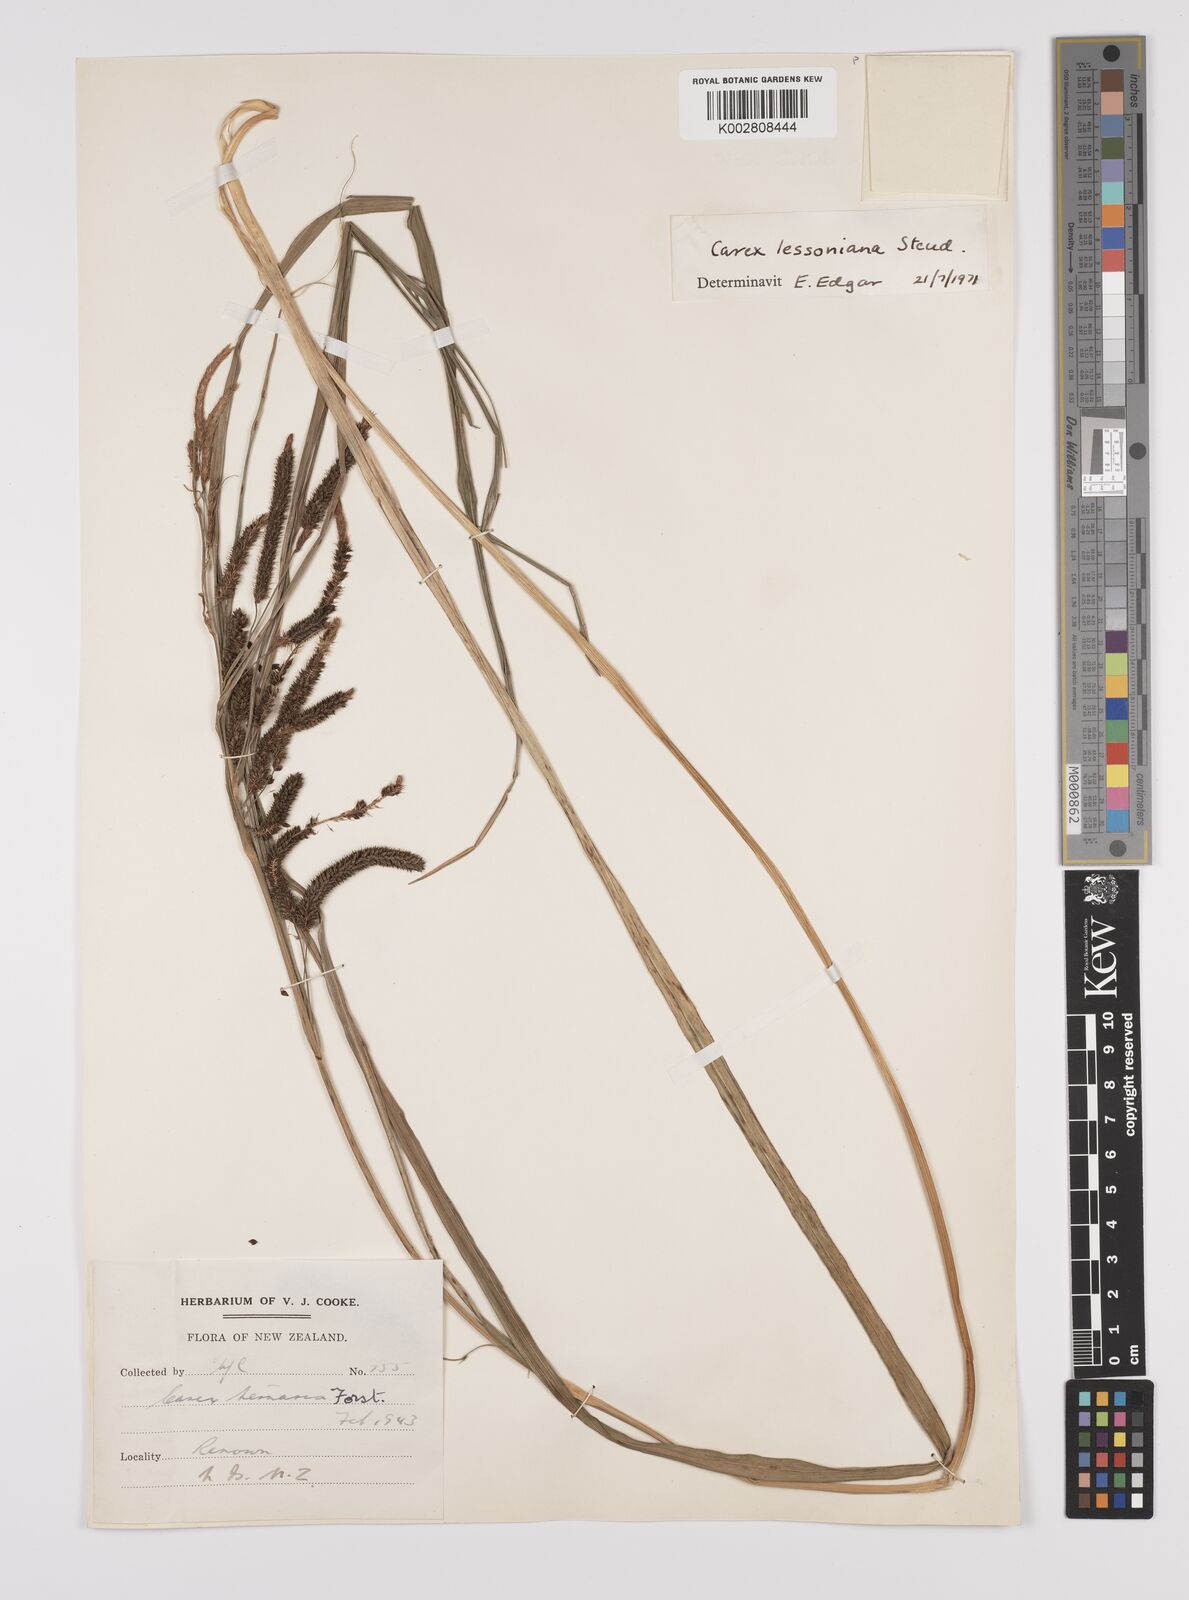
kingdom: Plantae
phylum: Tracheophyta
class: Liliopsida
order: Poales
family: Cyperaceae
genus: Carex
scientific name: Carex lessoniana
